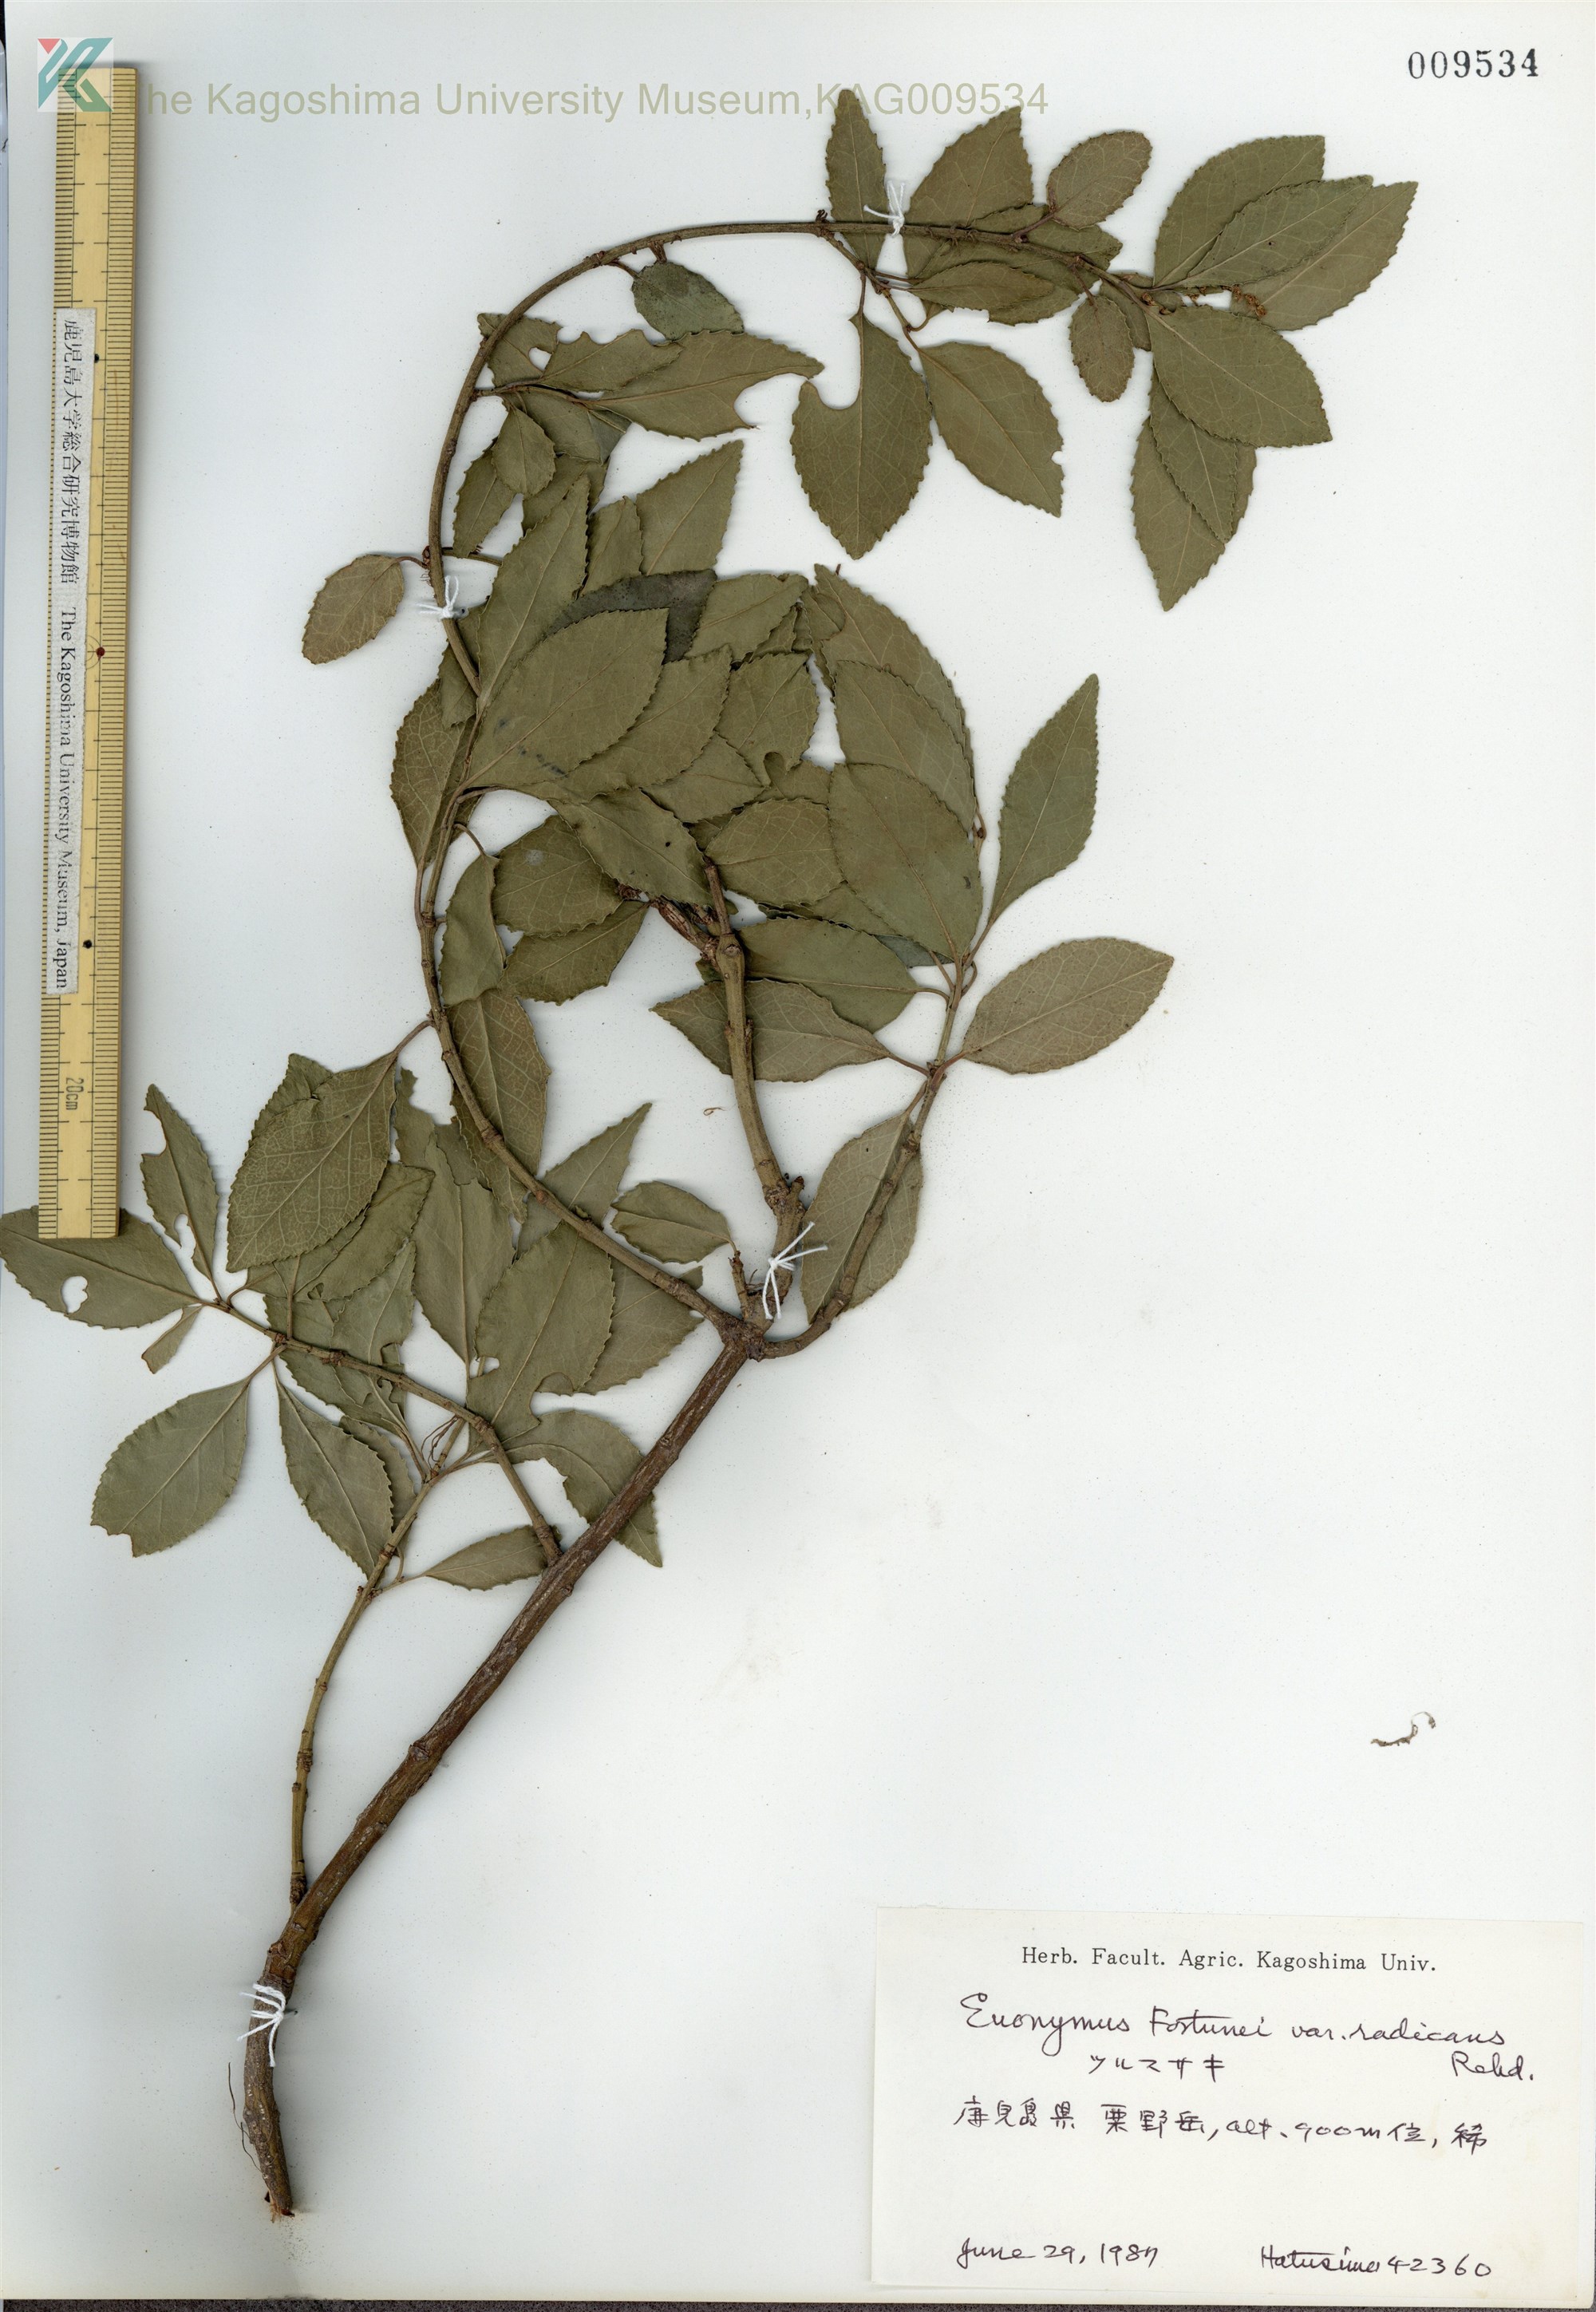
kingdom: Plantae
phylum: Tracheophyta
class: Magnoliopsida
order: Celastrales
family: Celastraceae
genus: Euonymus
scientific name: Euonymus fortunei
